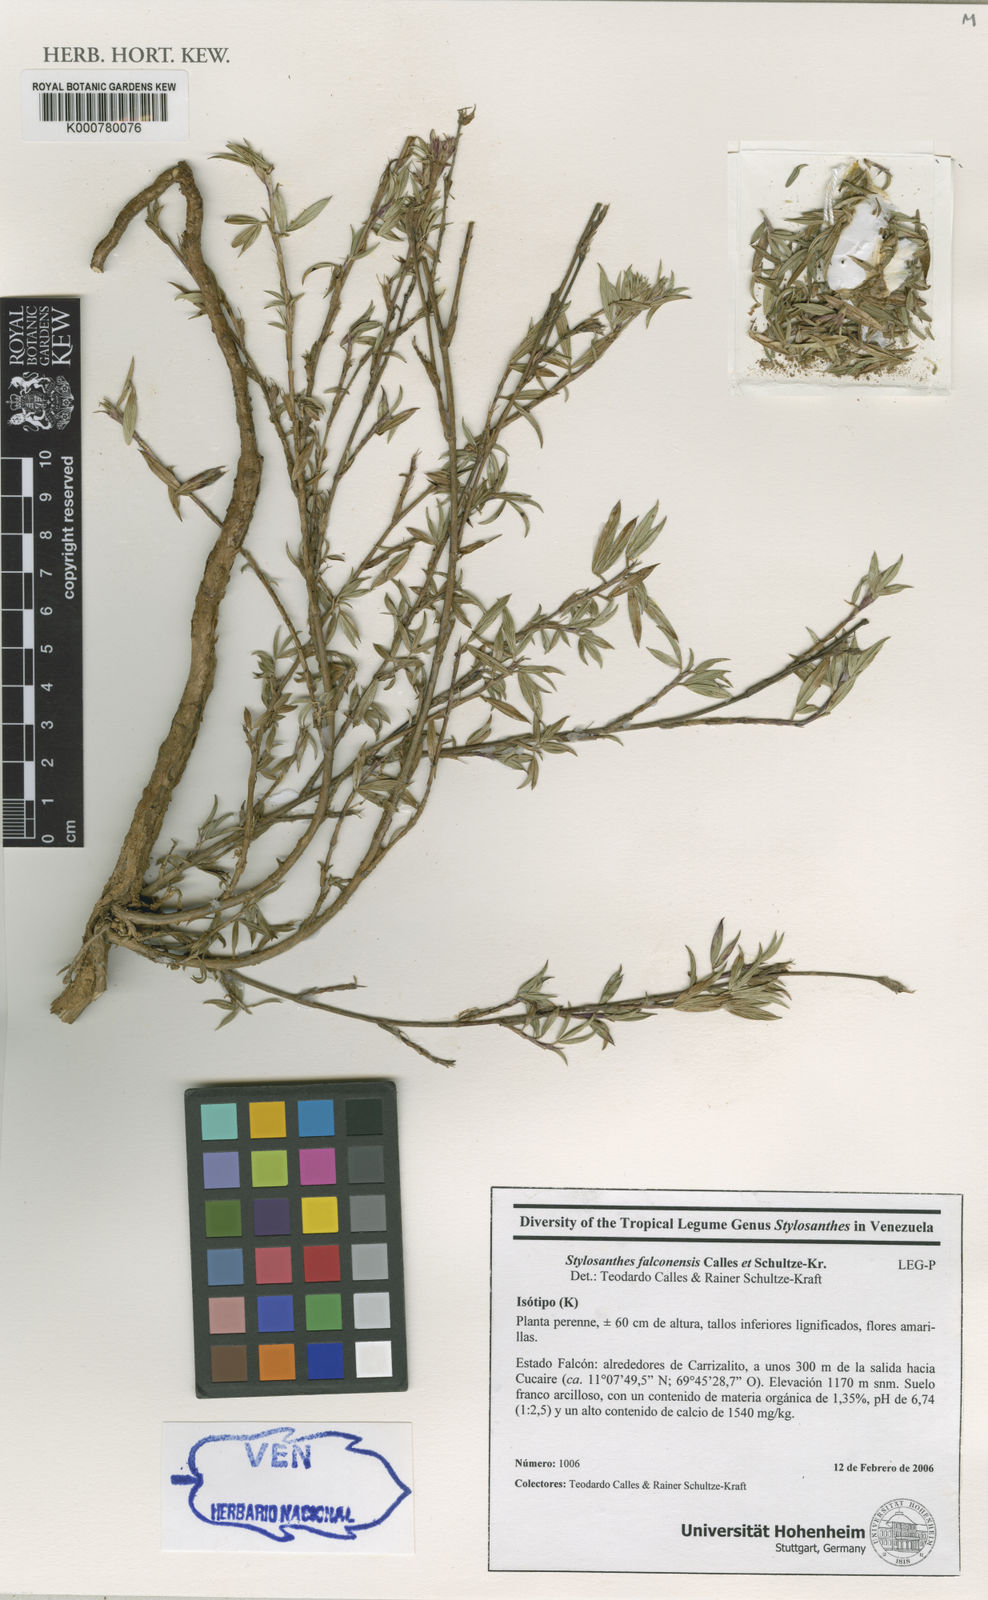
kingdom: Plantae
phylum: Tracheophyta
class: Magnoliopsida
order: Fabales
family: Fabaceae
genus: Stylosanthes
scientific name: Stylosanthes falconensis
